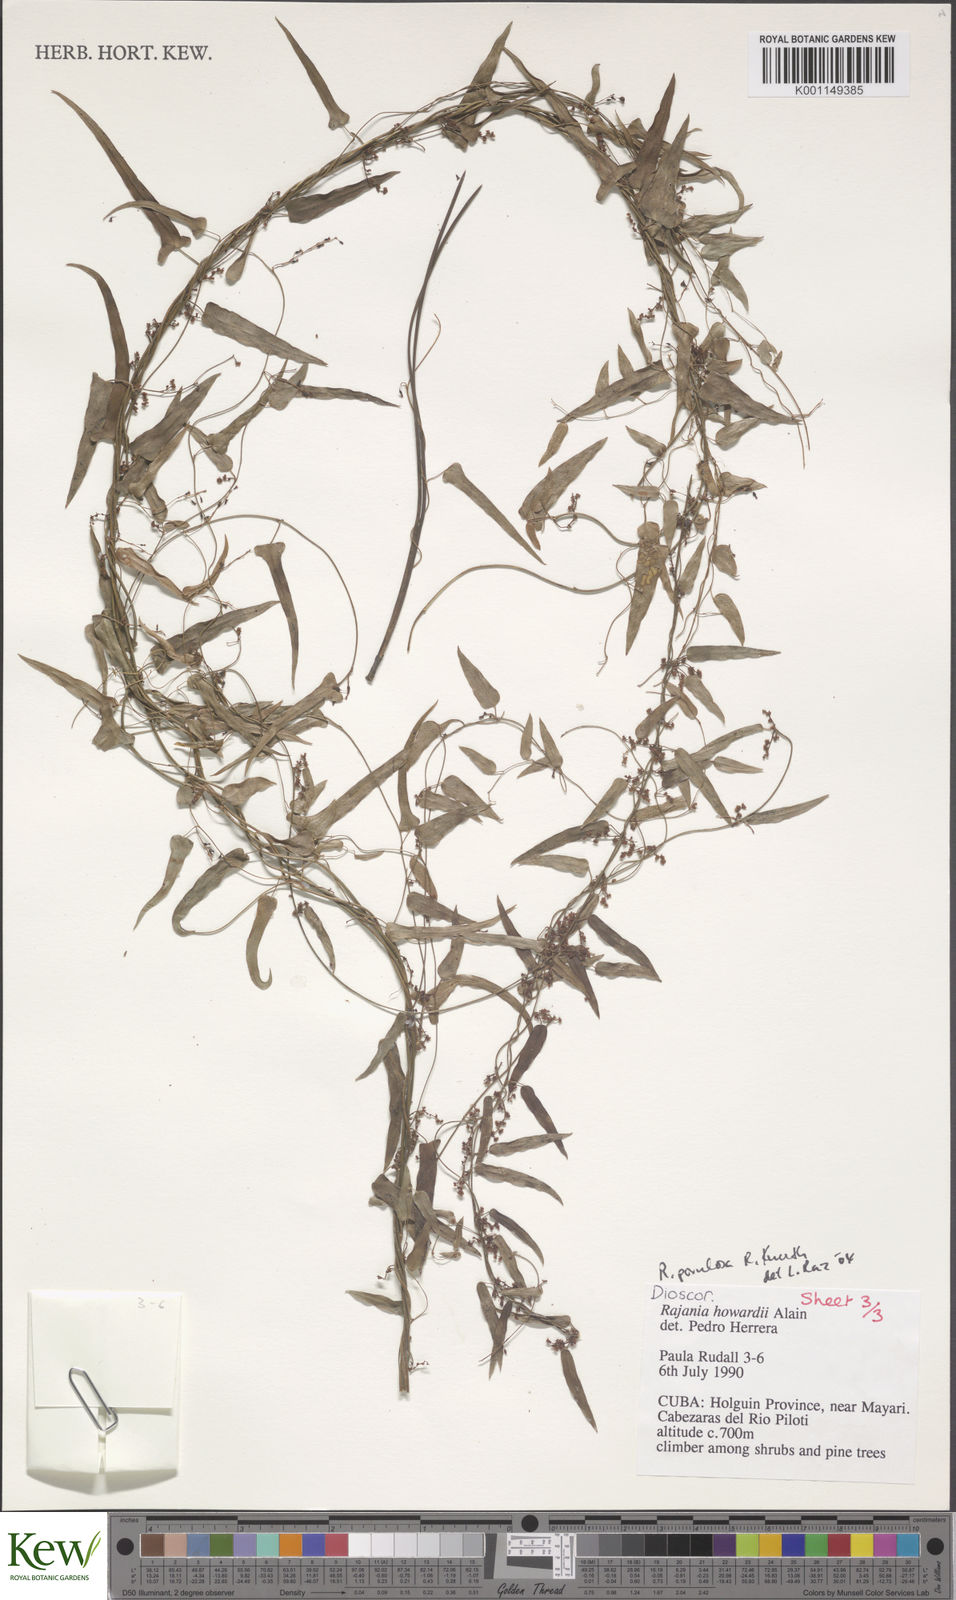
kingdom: Plantae
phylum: Tracheophyta
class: Liliopsida
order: Dioscoreales
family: Dioscoreaceae
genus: Dioscorea
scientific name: Dioscorea
